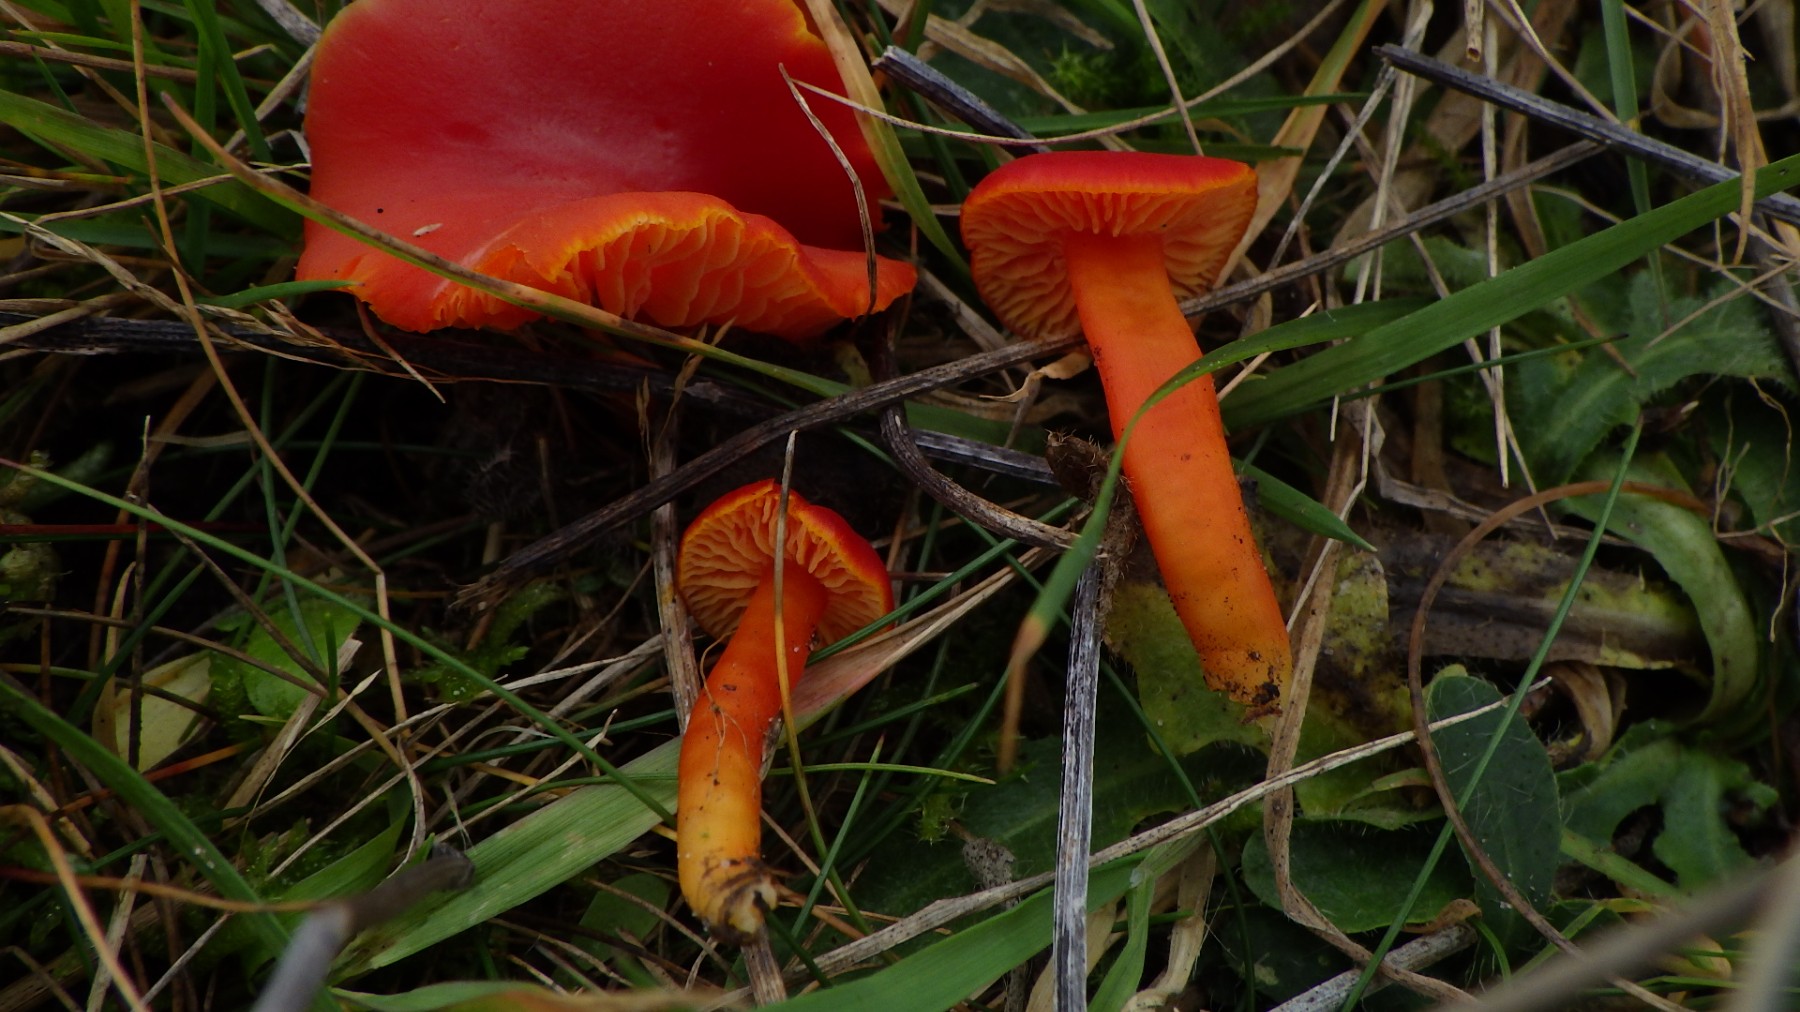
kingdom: Fungi
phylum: Basidiomycota
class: Agaricomycetes
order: Agaricales
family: Hygrophoraceae
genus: Hygrocybe
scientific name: Hygrocybe miniata
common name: mønje-vokshat
